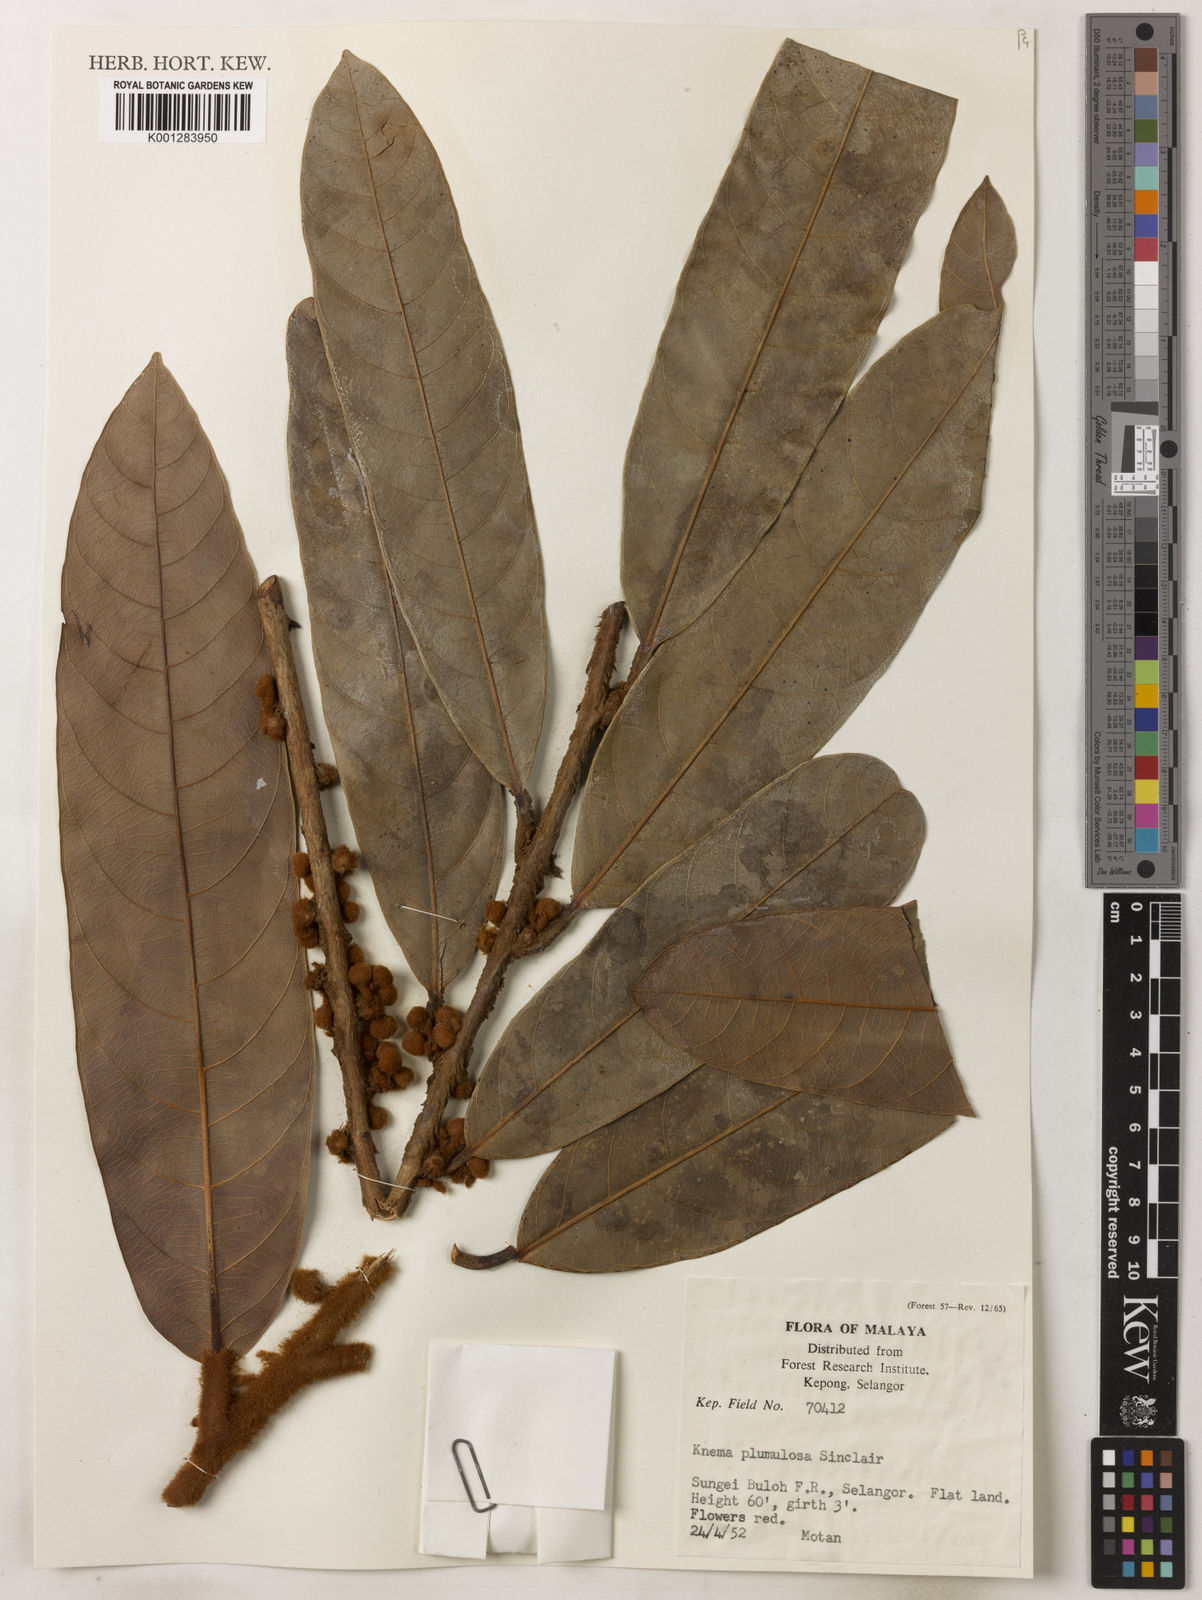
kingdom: Plantae
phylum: Tracheophyta
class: Magnoliopsida
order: Magnoliales
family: Myristicaceae
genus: Knema
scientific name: Knema plumulosa
